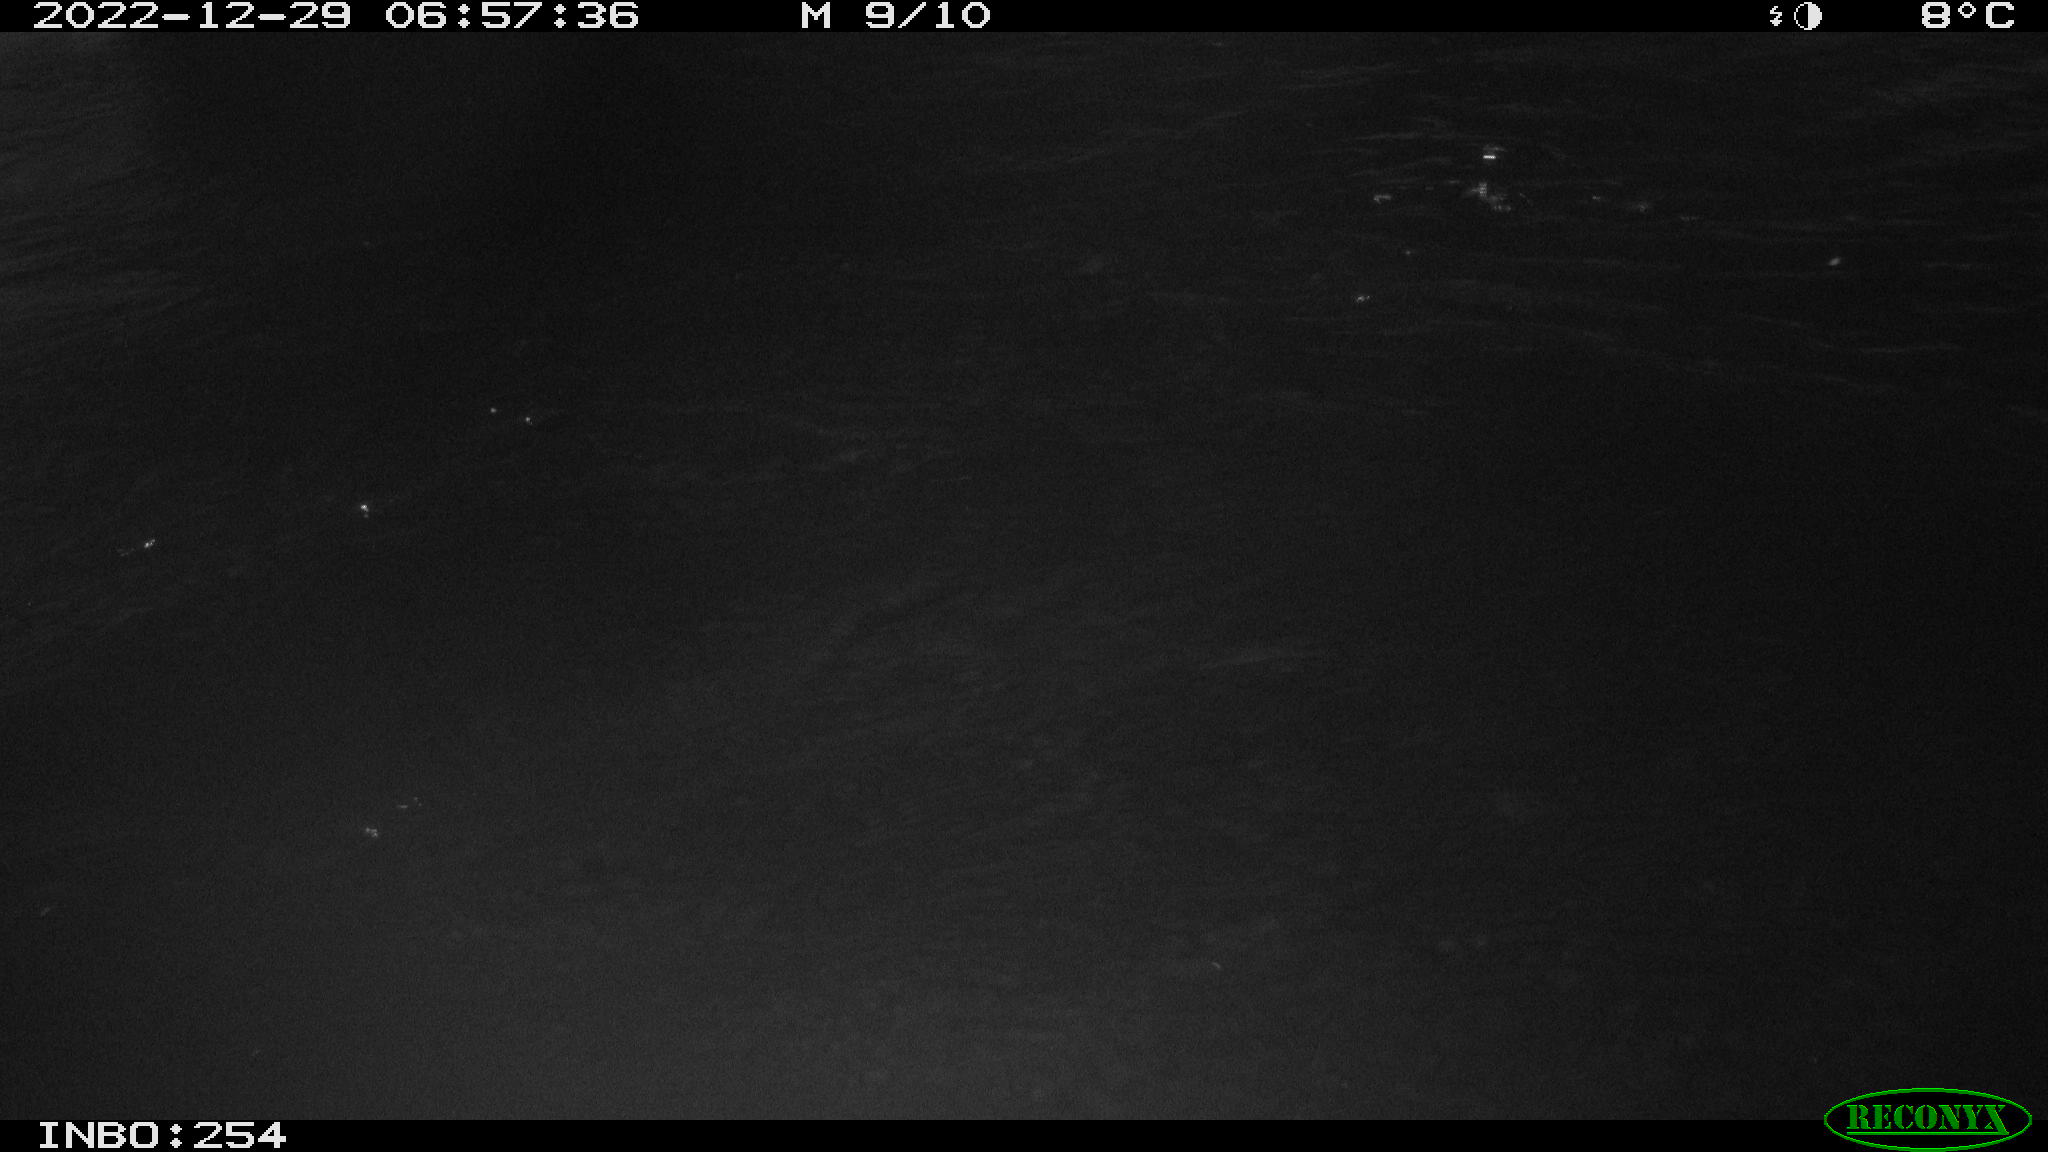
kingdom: Animalia
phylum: Chordata
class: Aves
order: Anseriformes
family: Anatidae
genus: Anas
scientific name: Anas
